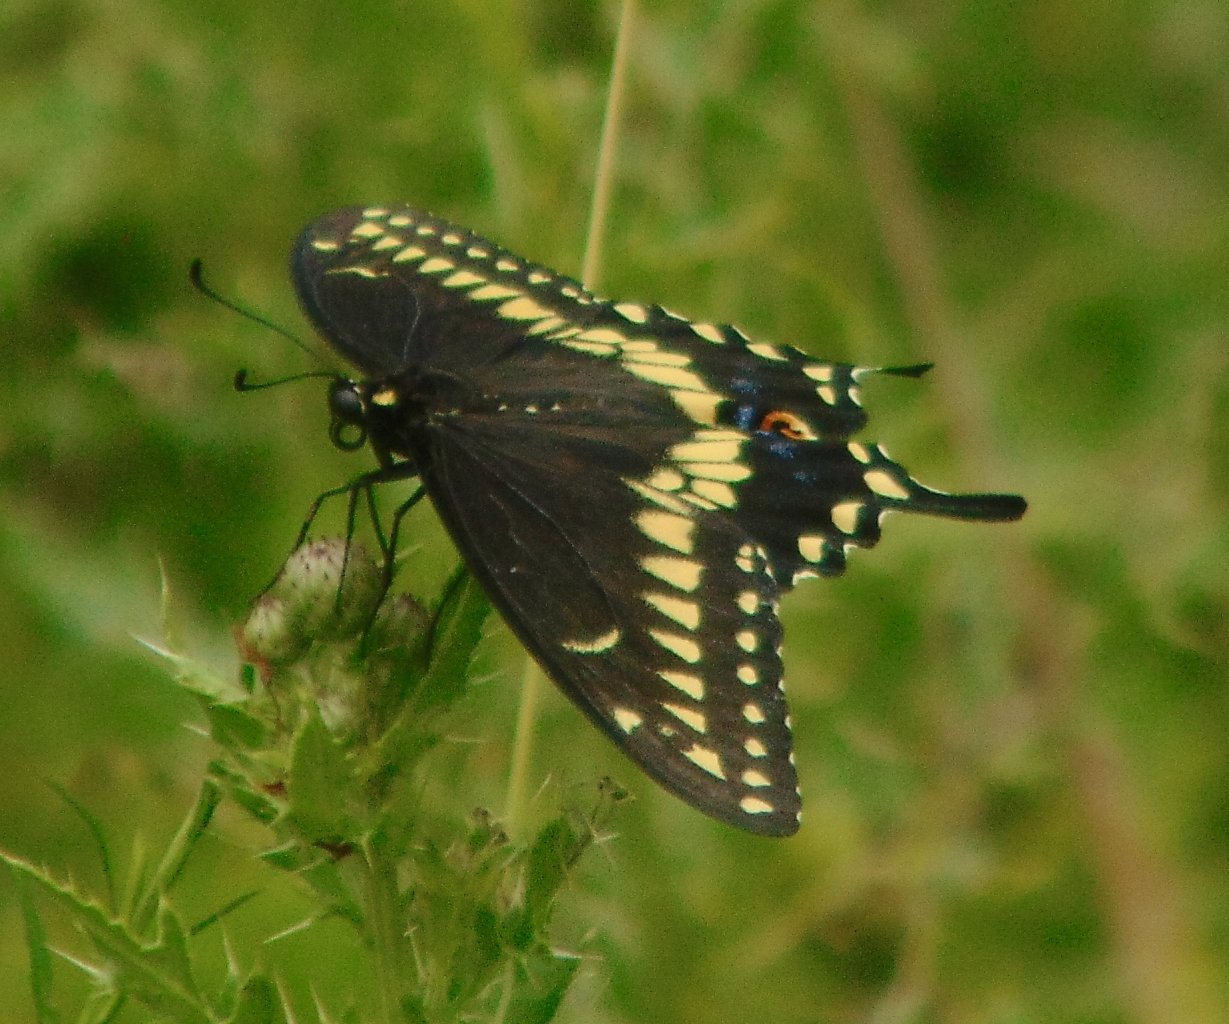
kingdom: Animalia
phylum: Arthropoda
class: Insecta
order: Lepidoptera
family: Papilionidae
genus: Papilio
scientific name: Papilio polyxenes
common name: Black Swallowtail
